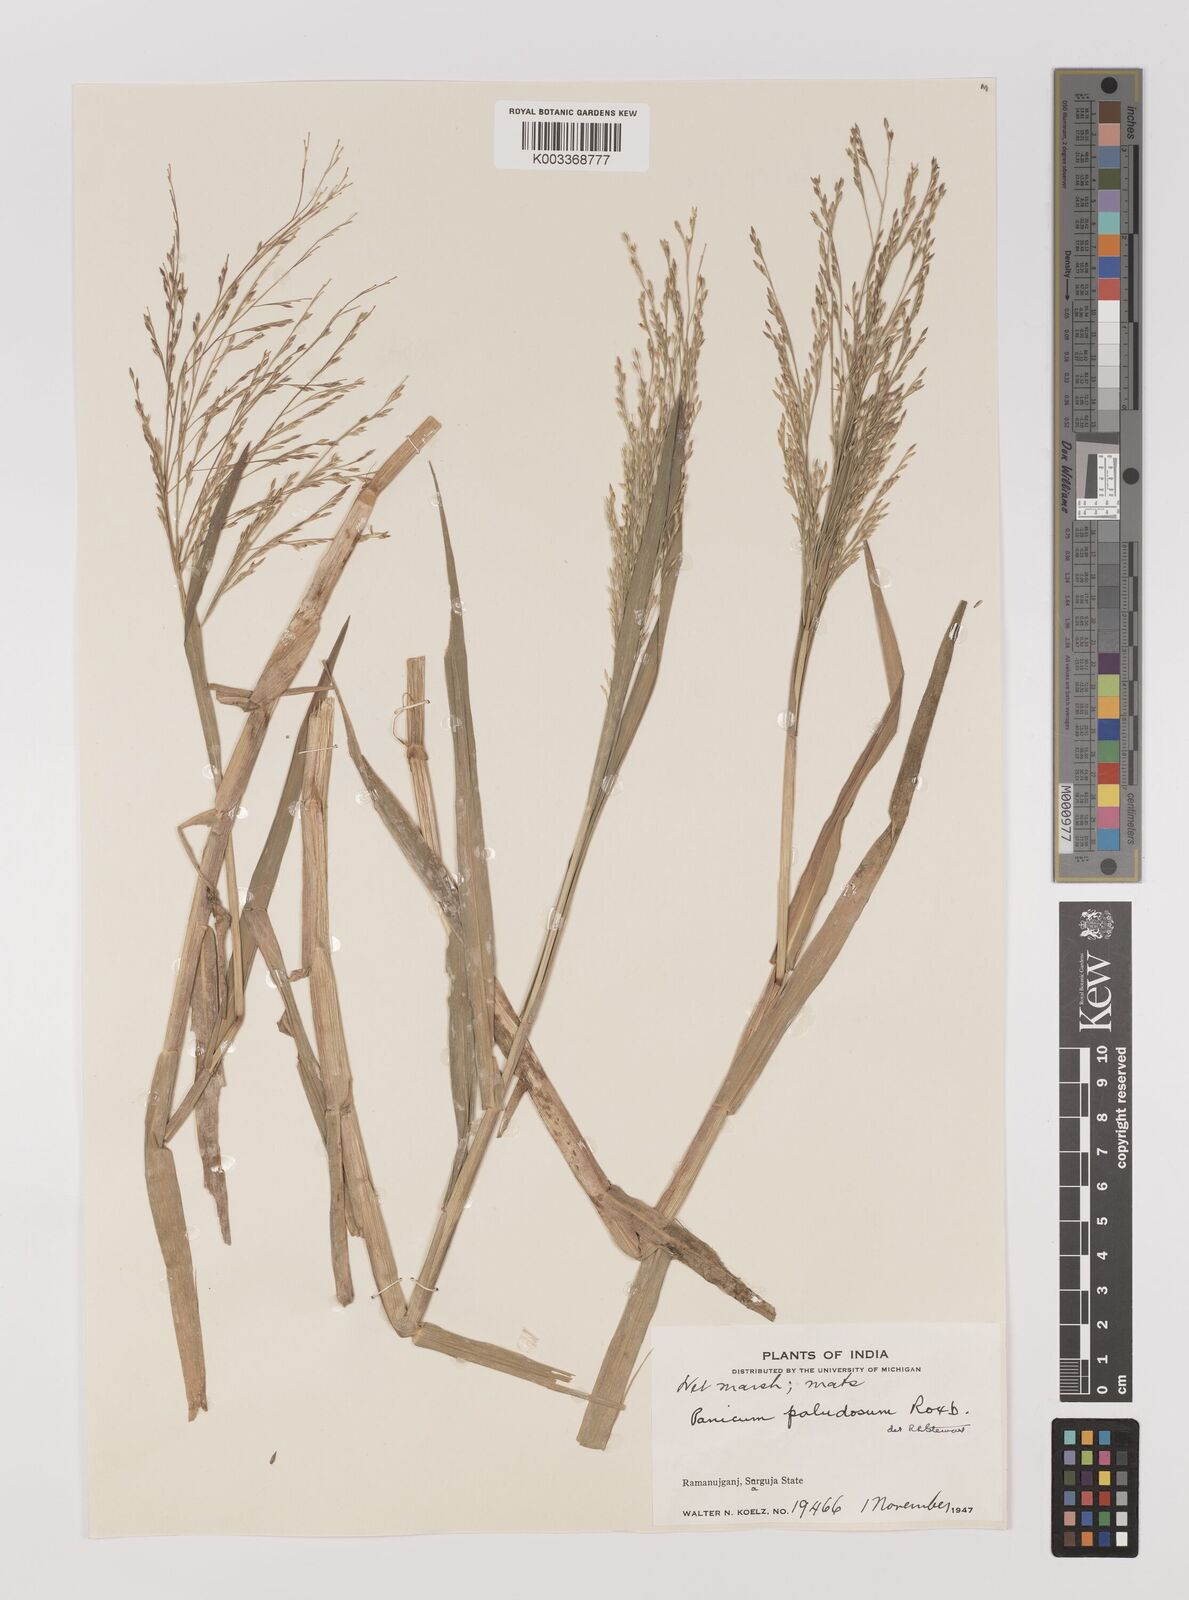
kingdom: Plantae
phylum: Tracheophyta
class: Liliopsida
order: Poales
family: Poaceae
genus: Louisiella
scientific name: Louisiella paludosa
